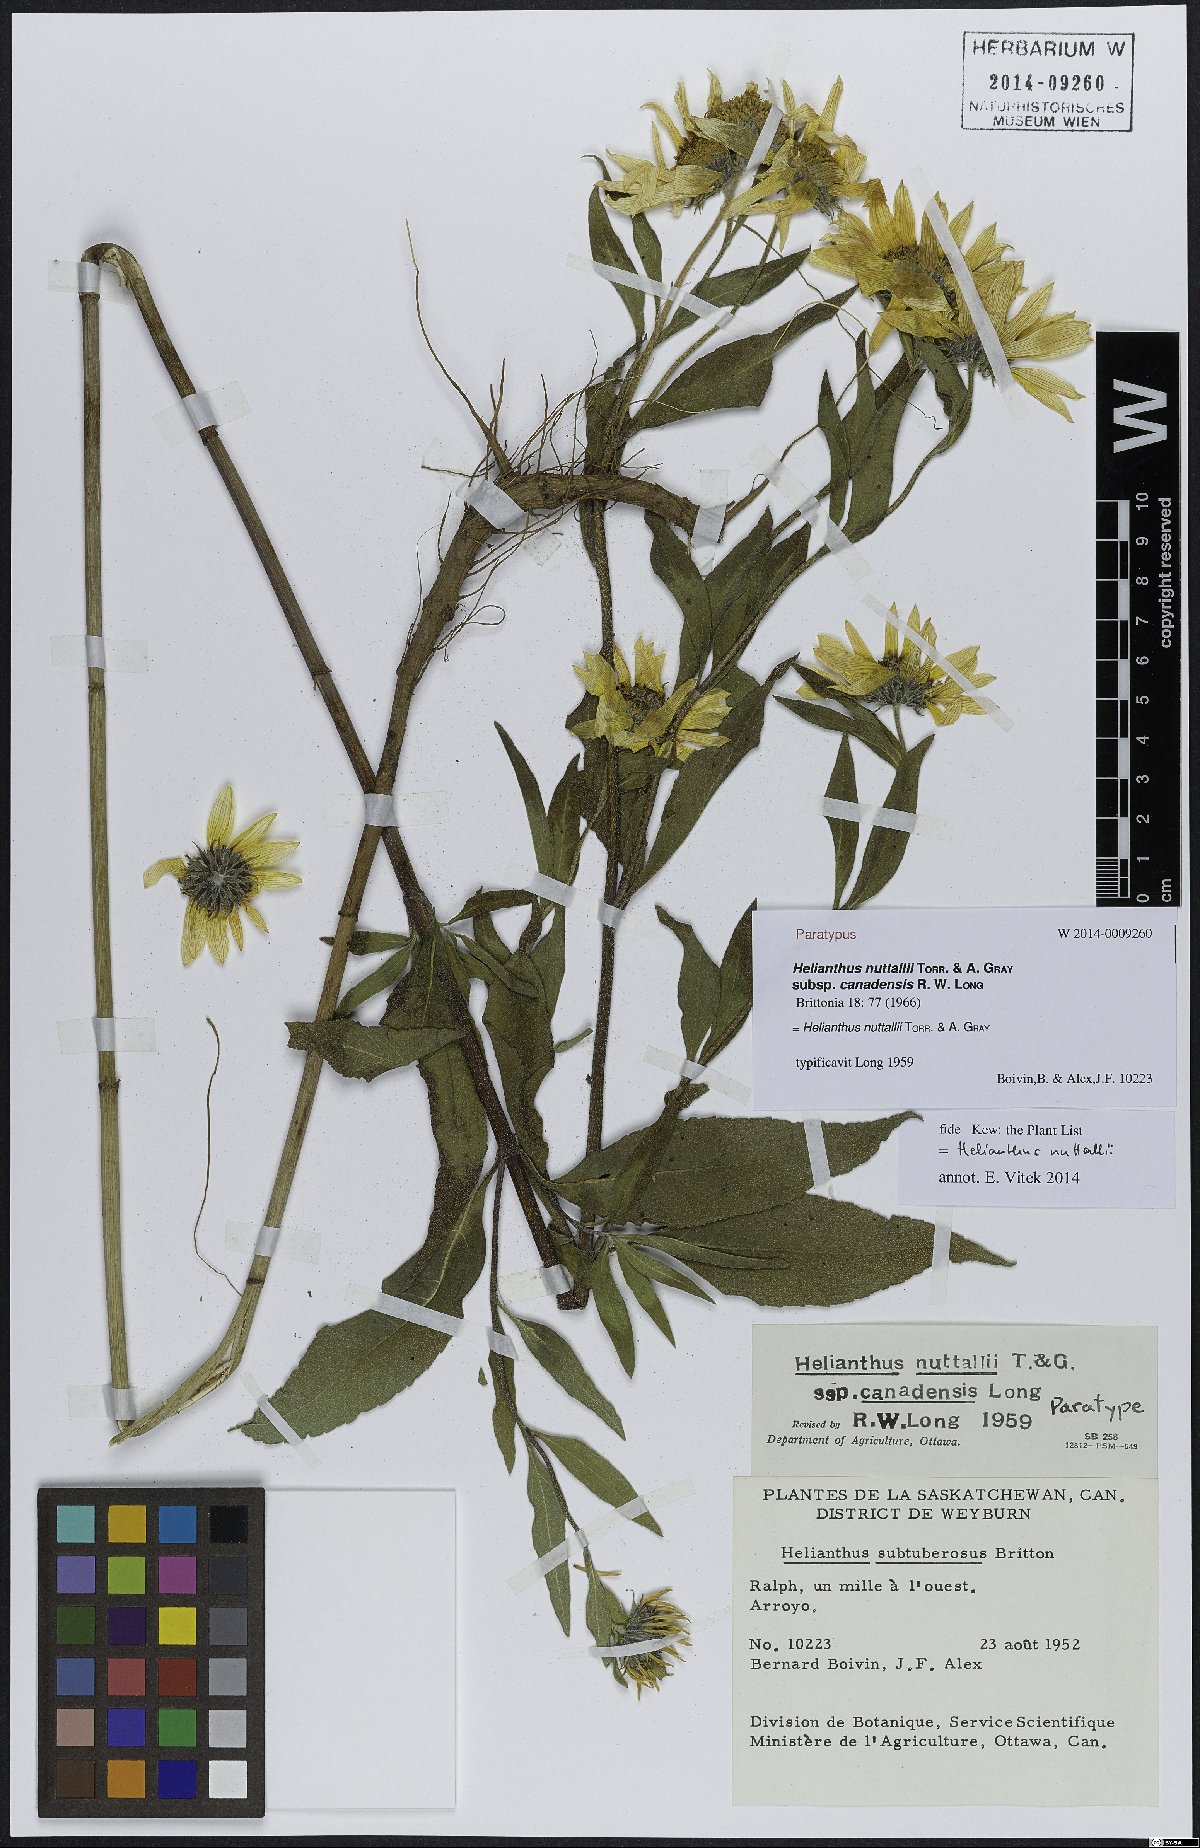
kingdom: Plantae
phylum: Tracheophyta
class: Magnoliopsida
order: Asterales
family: Asteraceae
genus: Helianthus
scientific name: Helianthus nuttallii
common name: Nuttall's sunflower
